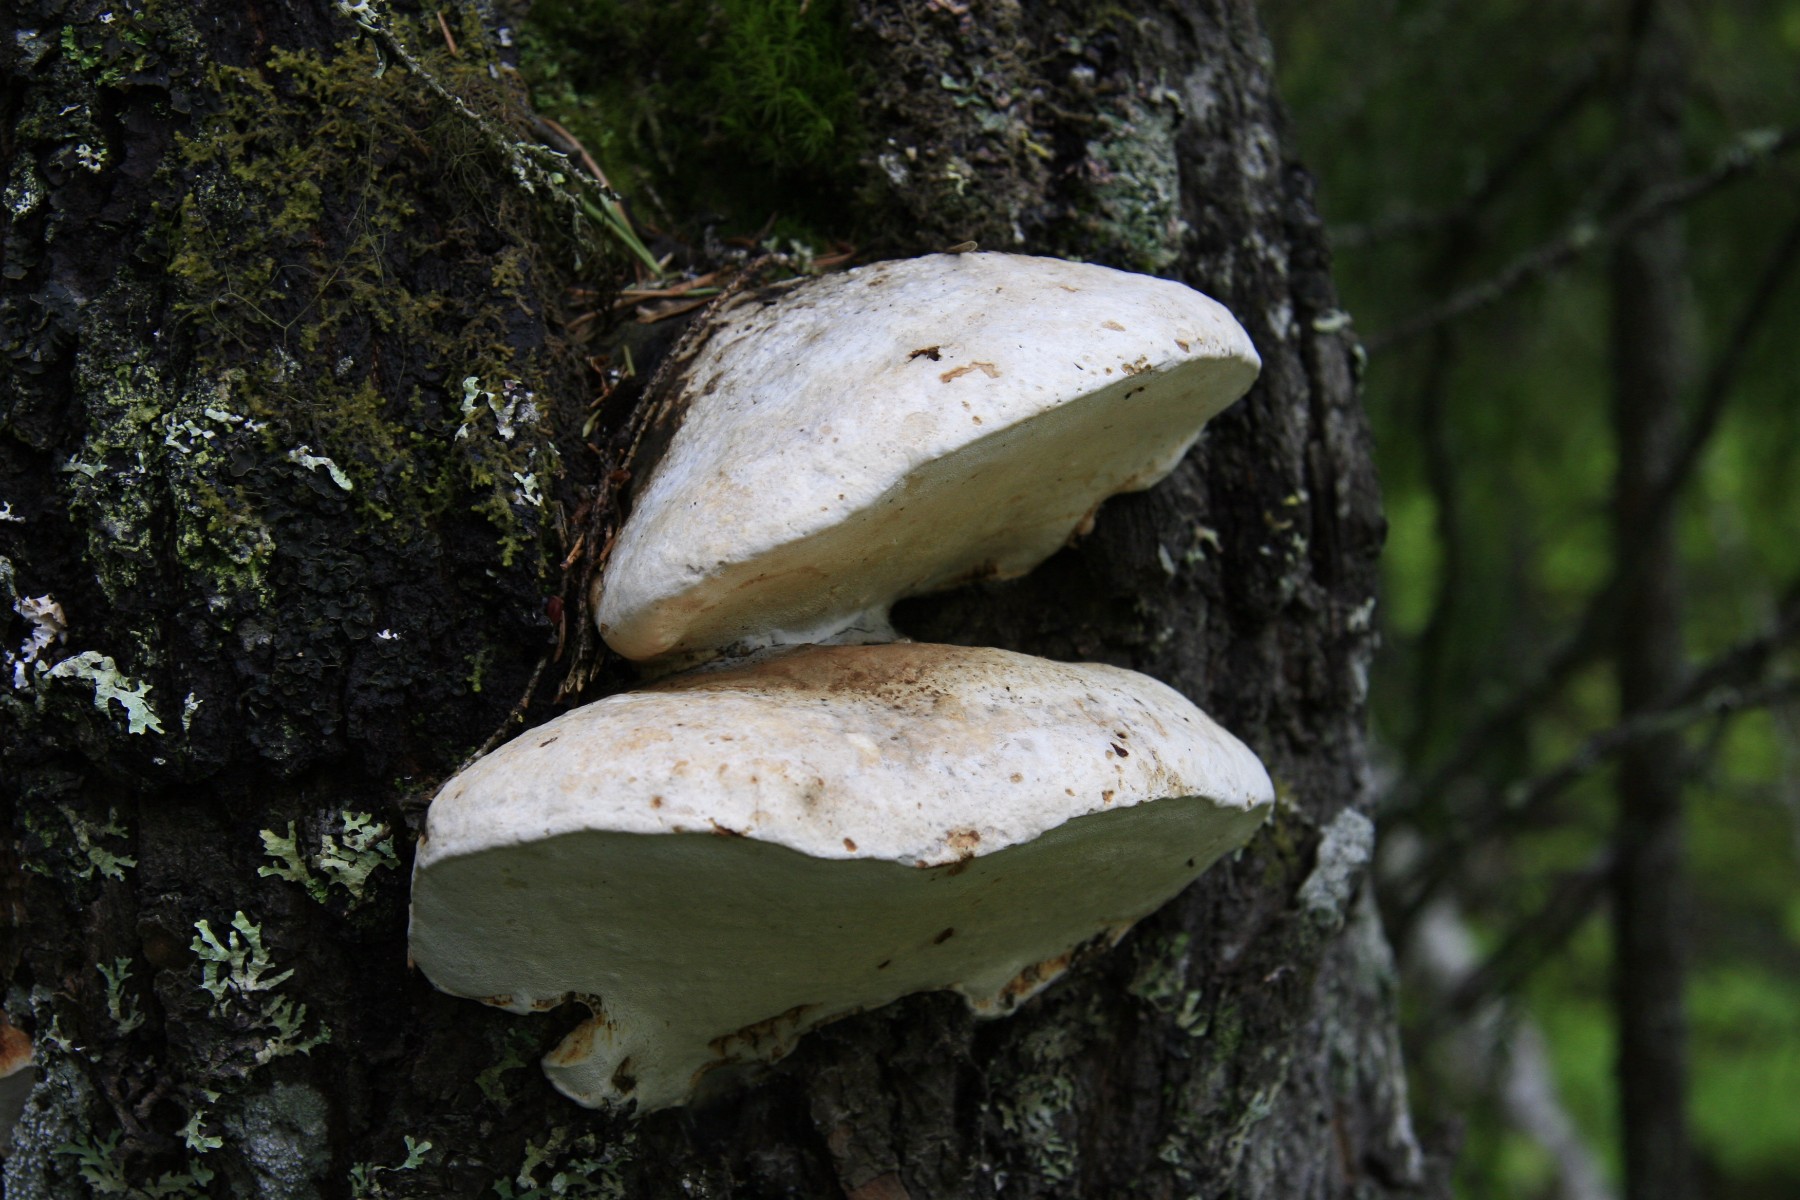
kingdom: Fungi
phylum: Basidiomycota
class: Agaricomycetes
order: Polyporales
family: Polyporaceae
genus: Haploporus
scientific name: Haploporus odorus
